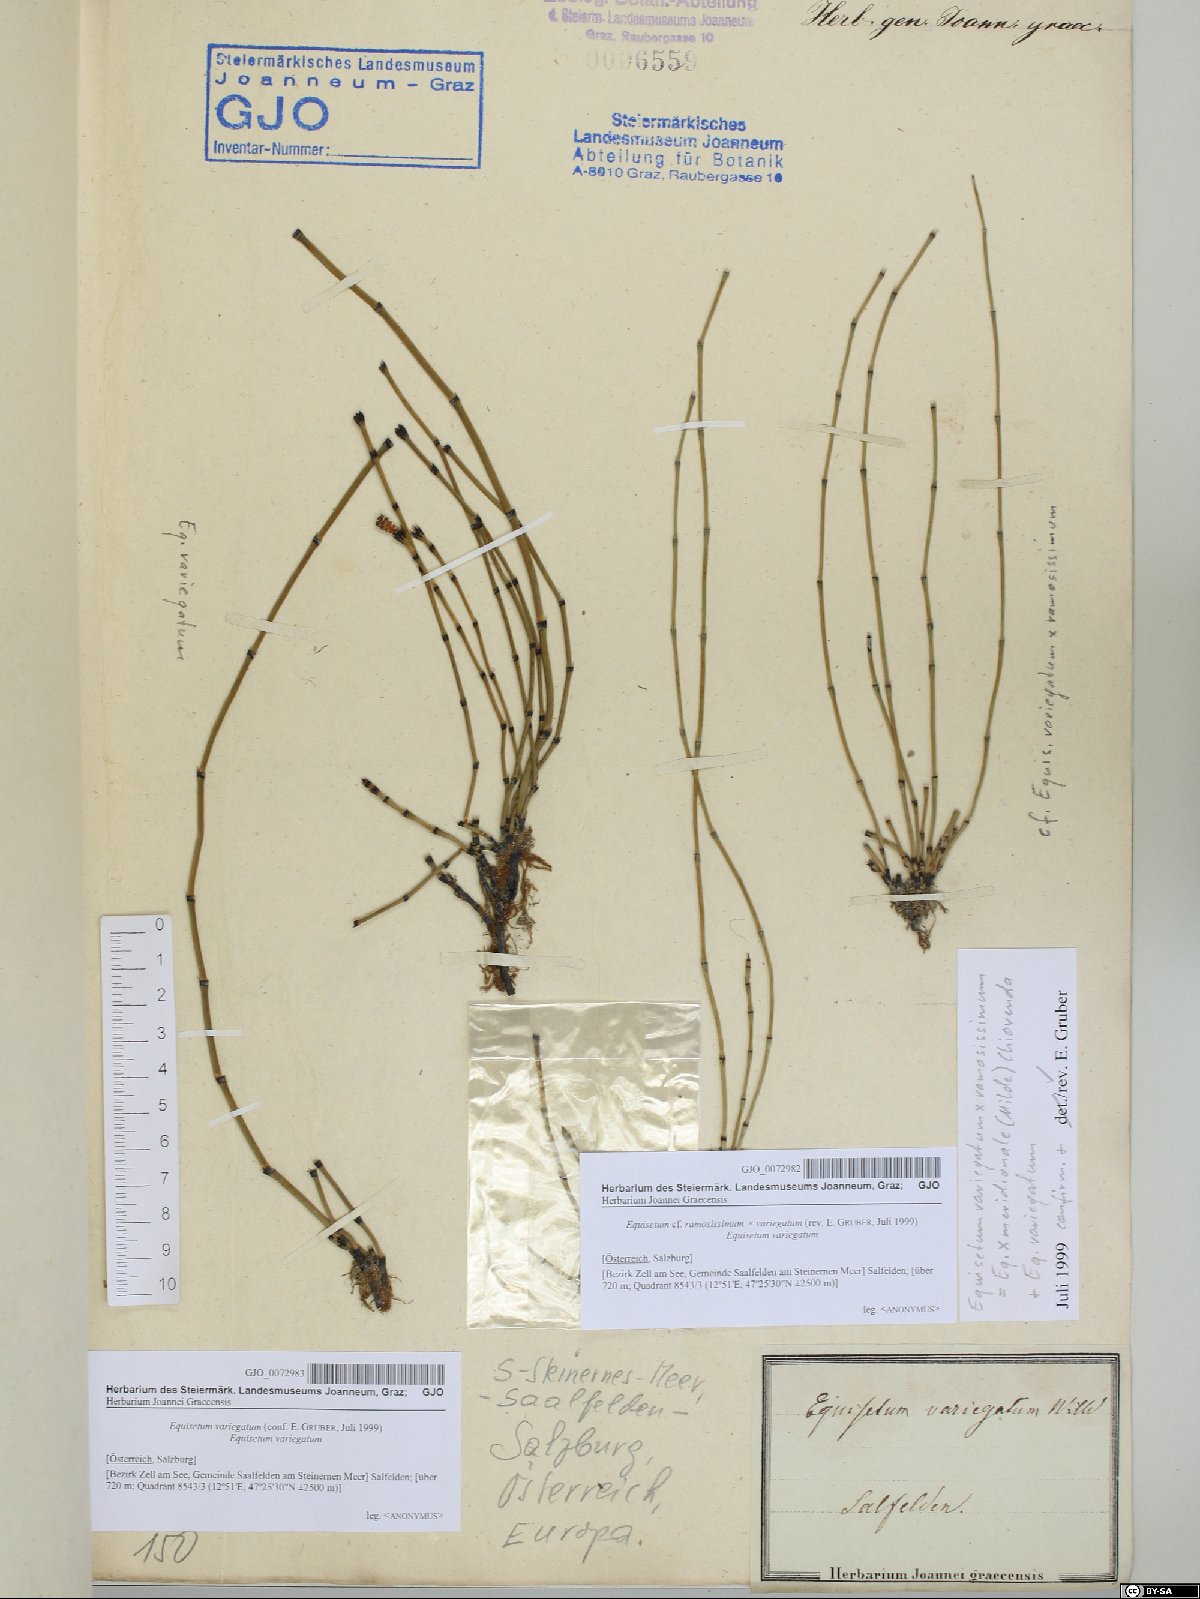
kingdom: Plantae
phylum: Tracheophyta
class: Polypodiopsida
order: Equisetales
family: Equisetaceae
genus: Equisetum
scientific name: Equisetum variegatum
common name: Variegated horsetail
